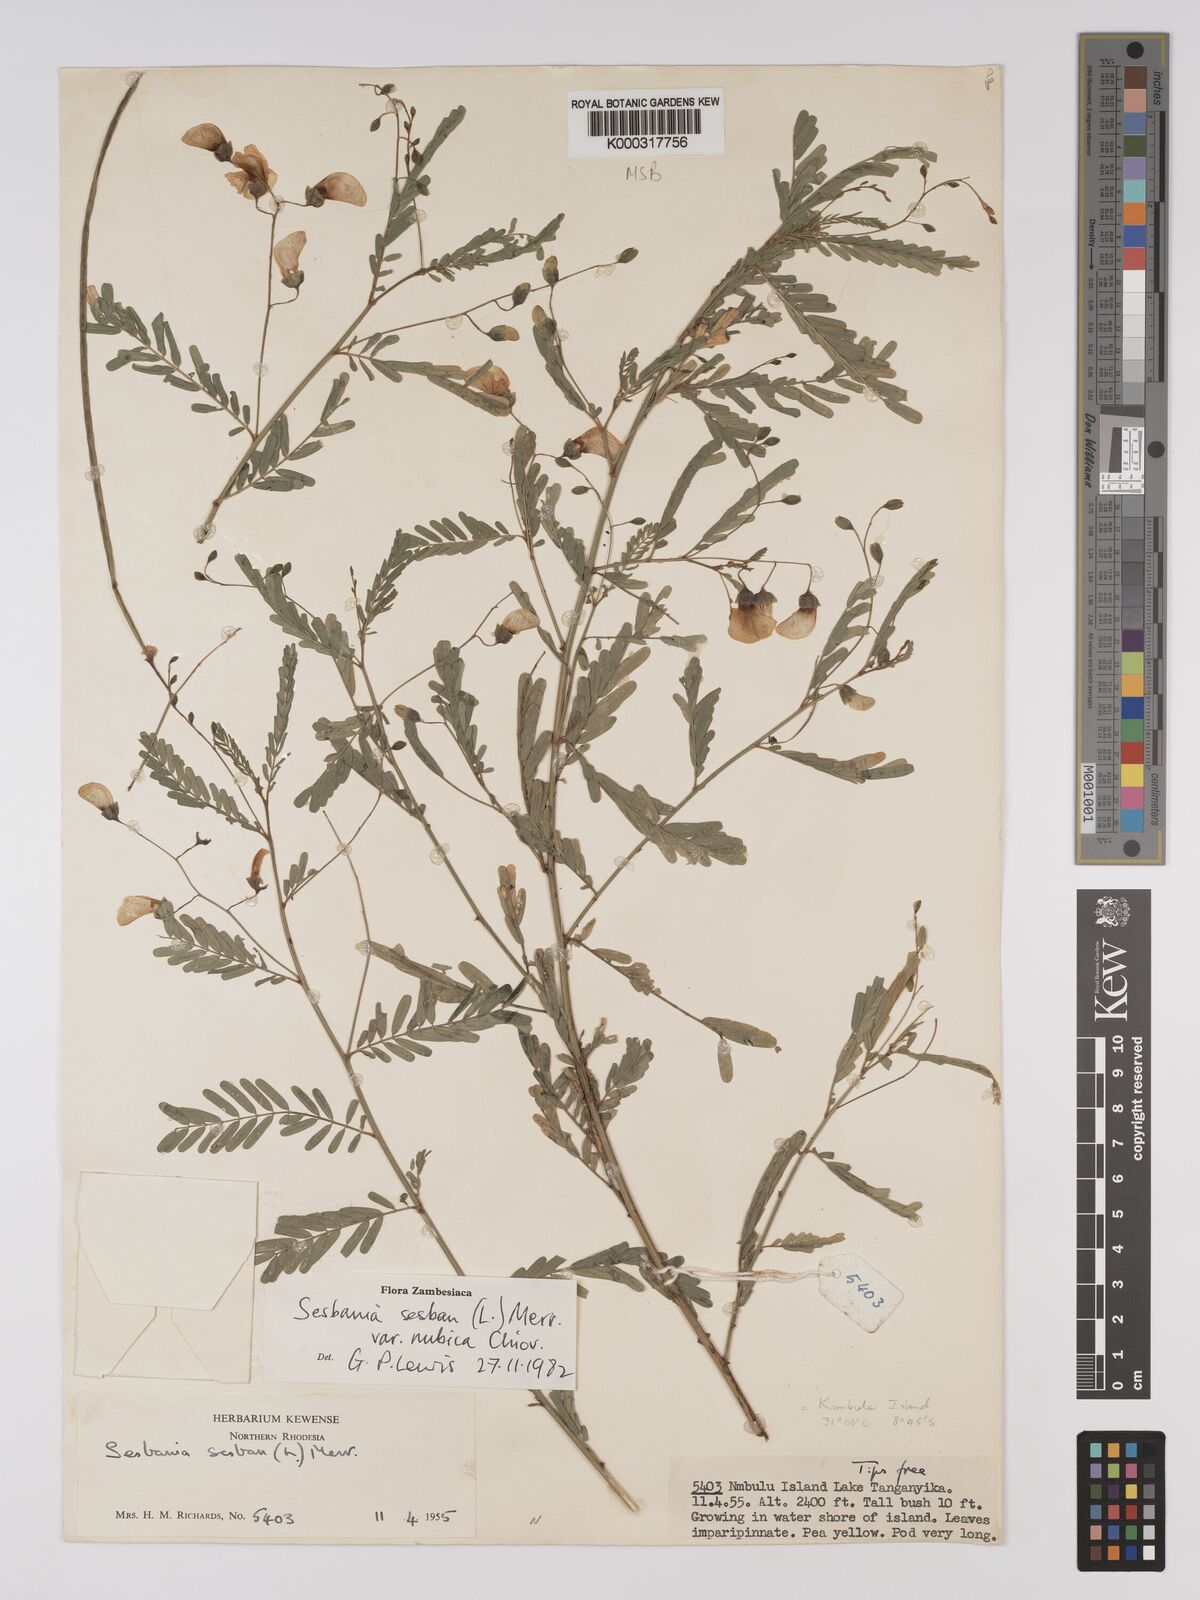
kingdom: Plantae
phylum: Tracheophyta
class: Magnoliopsida
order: Fabales
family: Fabaceae
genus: Sesbania
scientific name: Sesbania sesban
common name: Egyptian sesban
